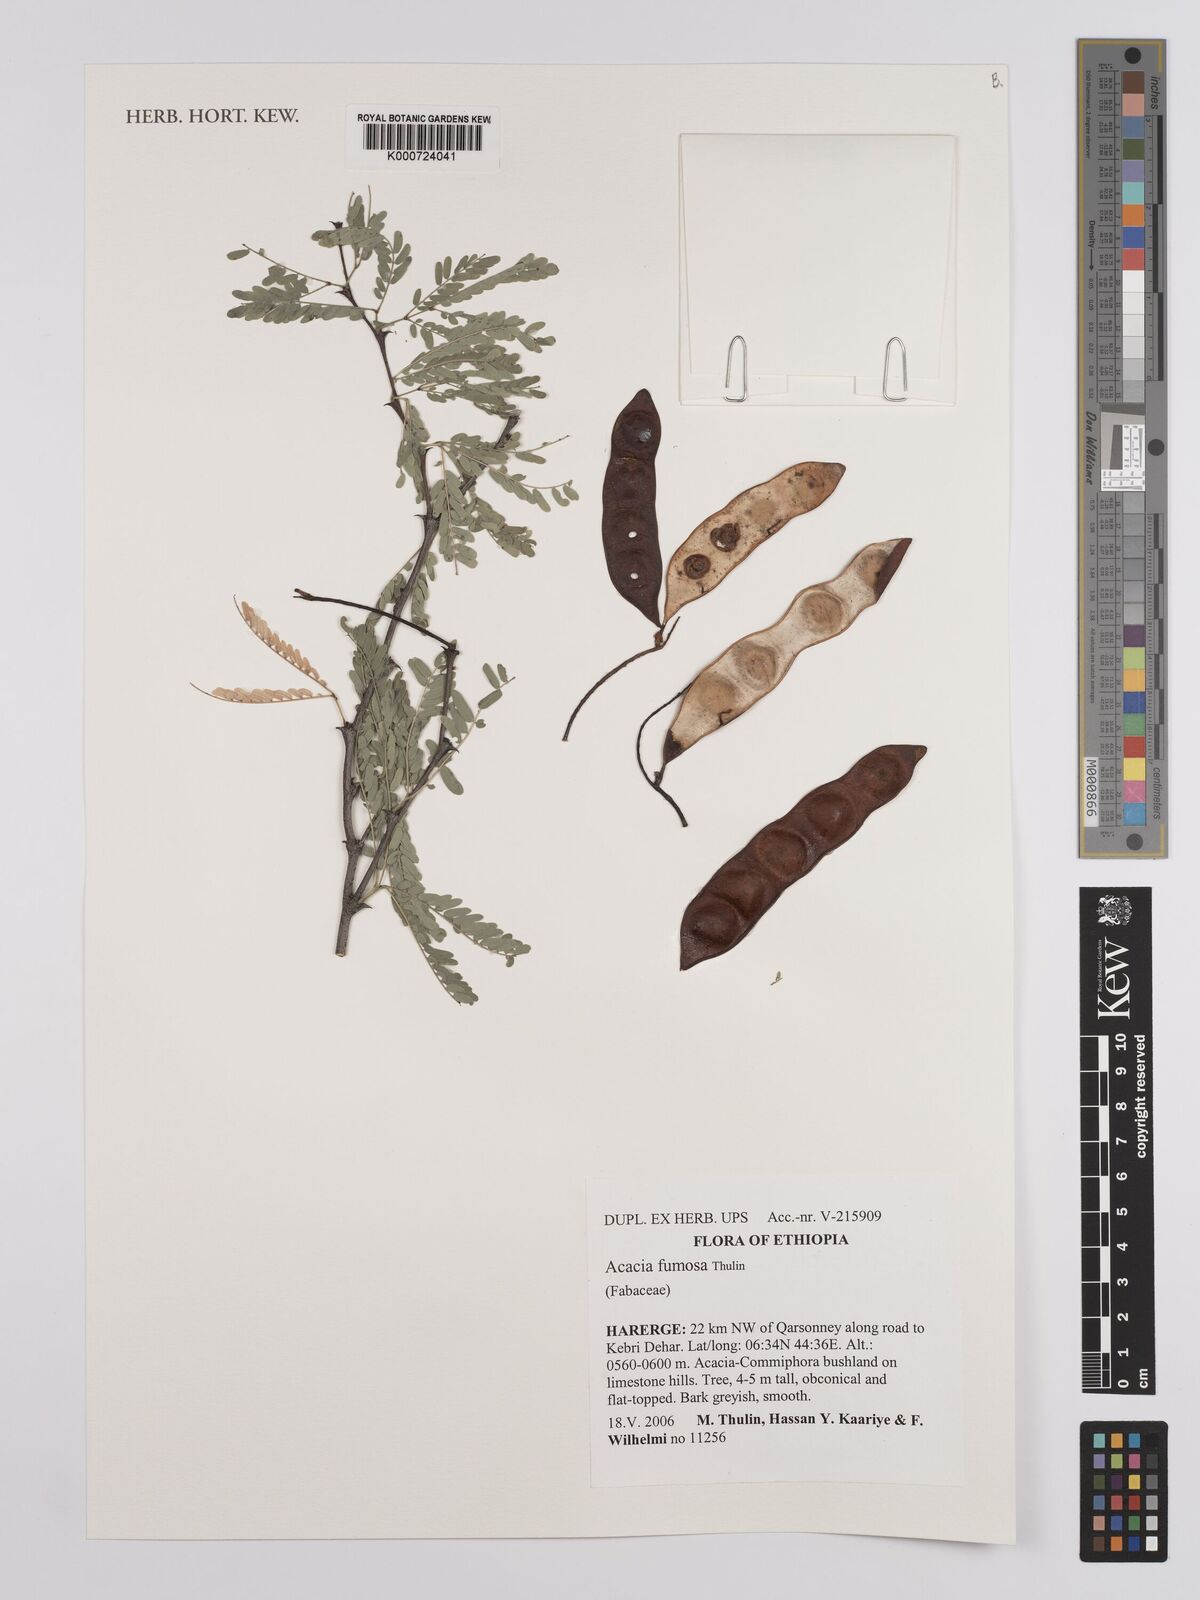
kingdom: Plantae
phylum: Tracheophyta
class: Magnoliopsida
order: Fabales
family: Fabaceae
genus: Senegalia
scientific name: Senegalia fumosa
